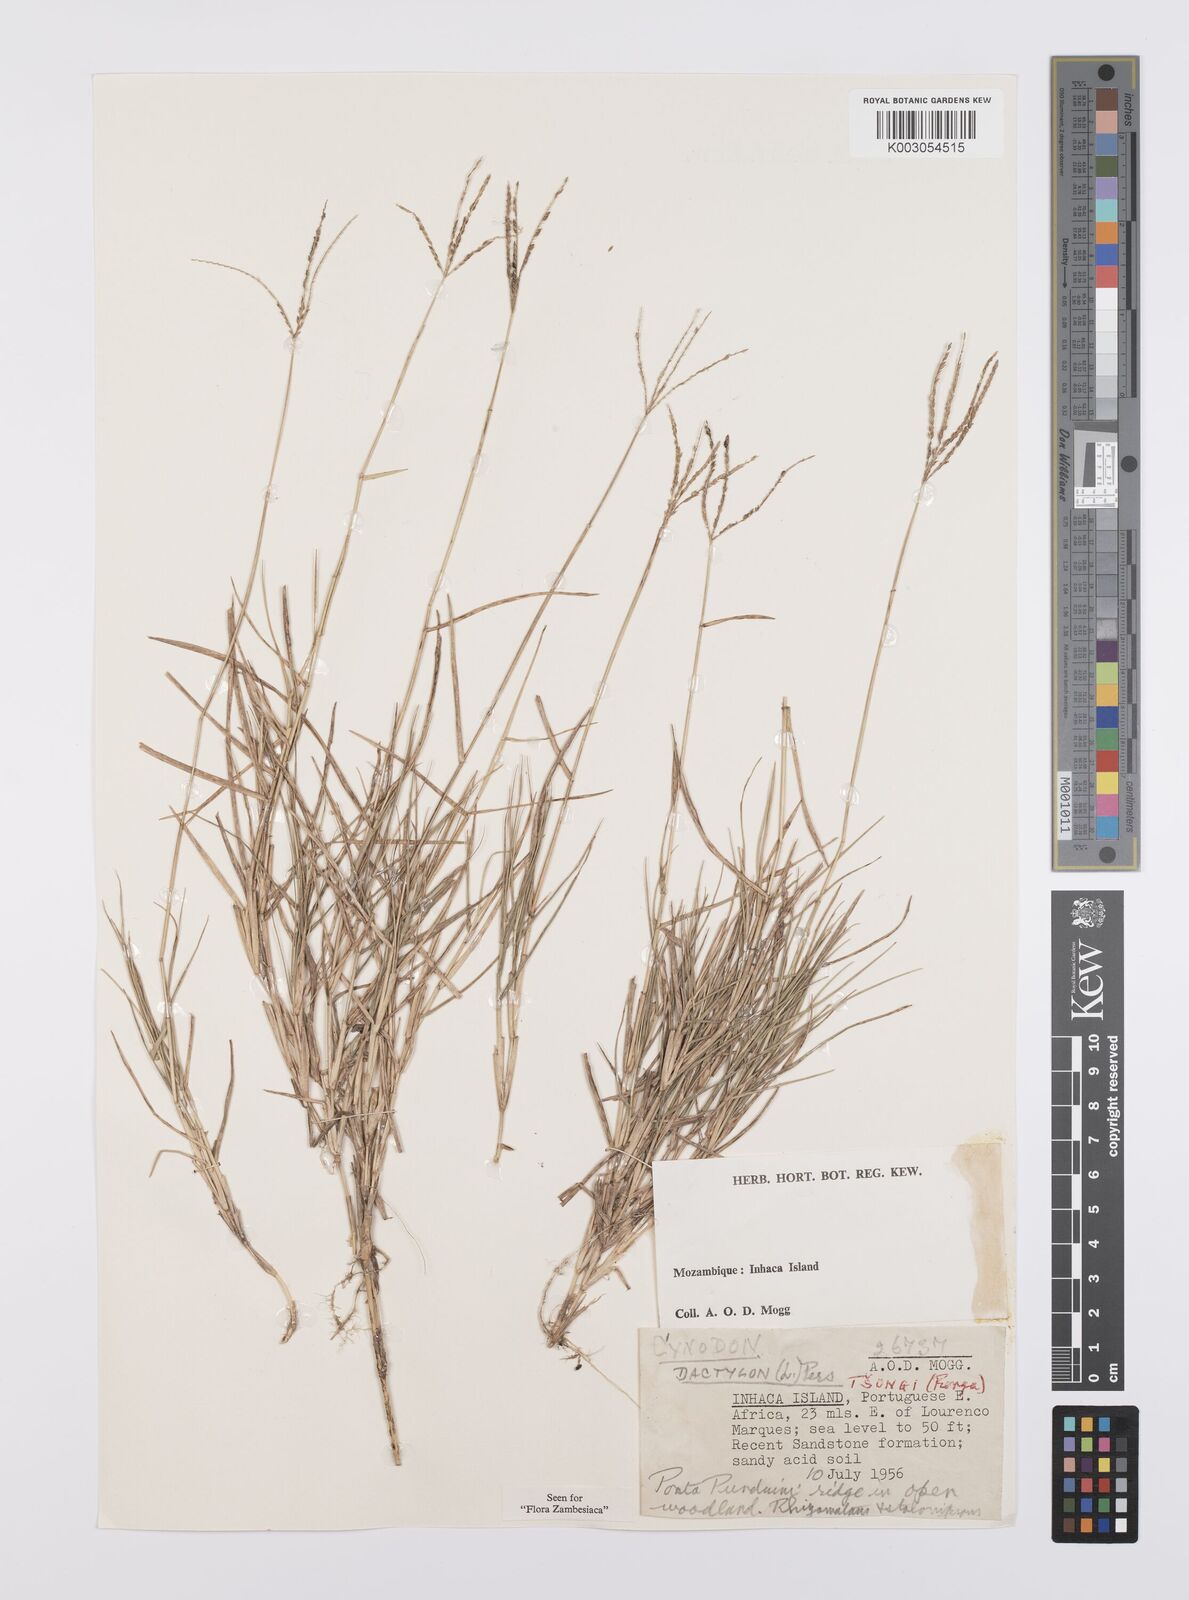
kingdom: Plantae
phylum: Tracheophyta
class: Liliopsida
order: Poales
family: Poaceae
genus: Cynodon
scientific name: Cynodon dactylon
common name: Bermuda grass
